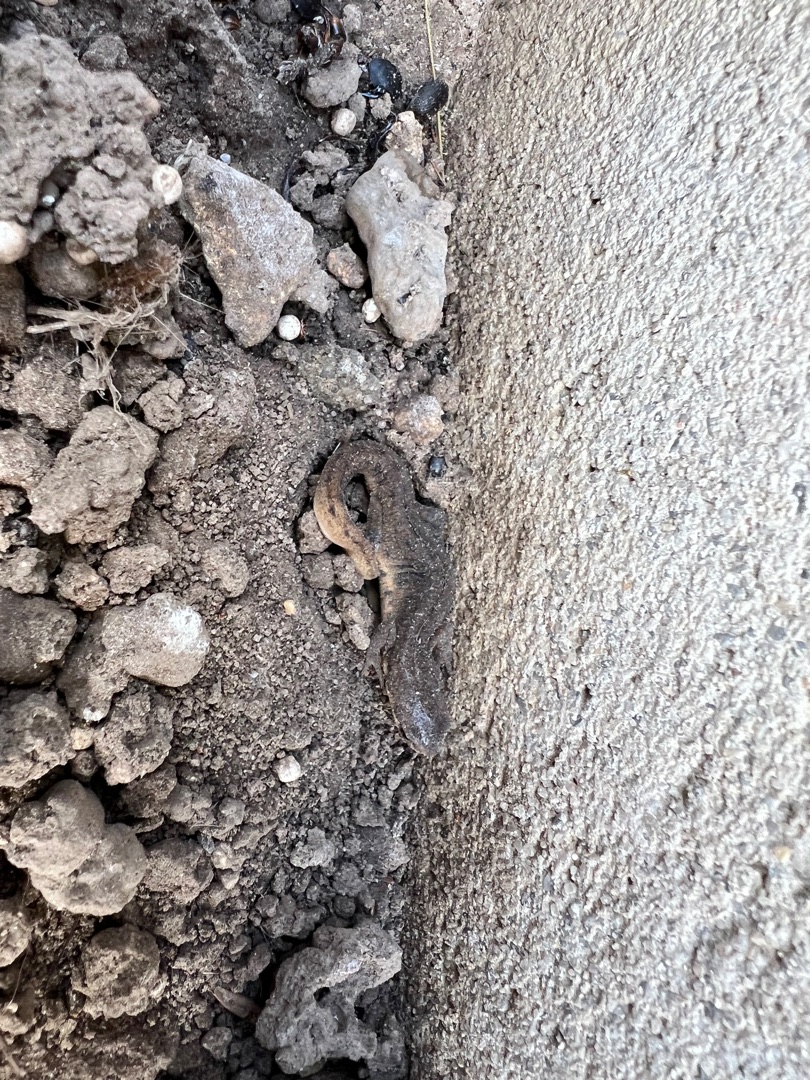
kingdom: Animalia
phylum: Chordata
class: Amphibia
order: Caudata
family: Salamandridae
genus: Lissotriton
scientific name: Lissotriton vulgaris
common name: Lille vandsalamander
